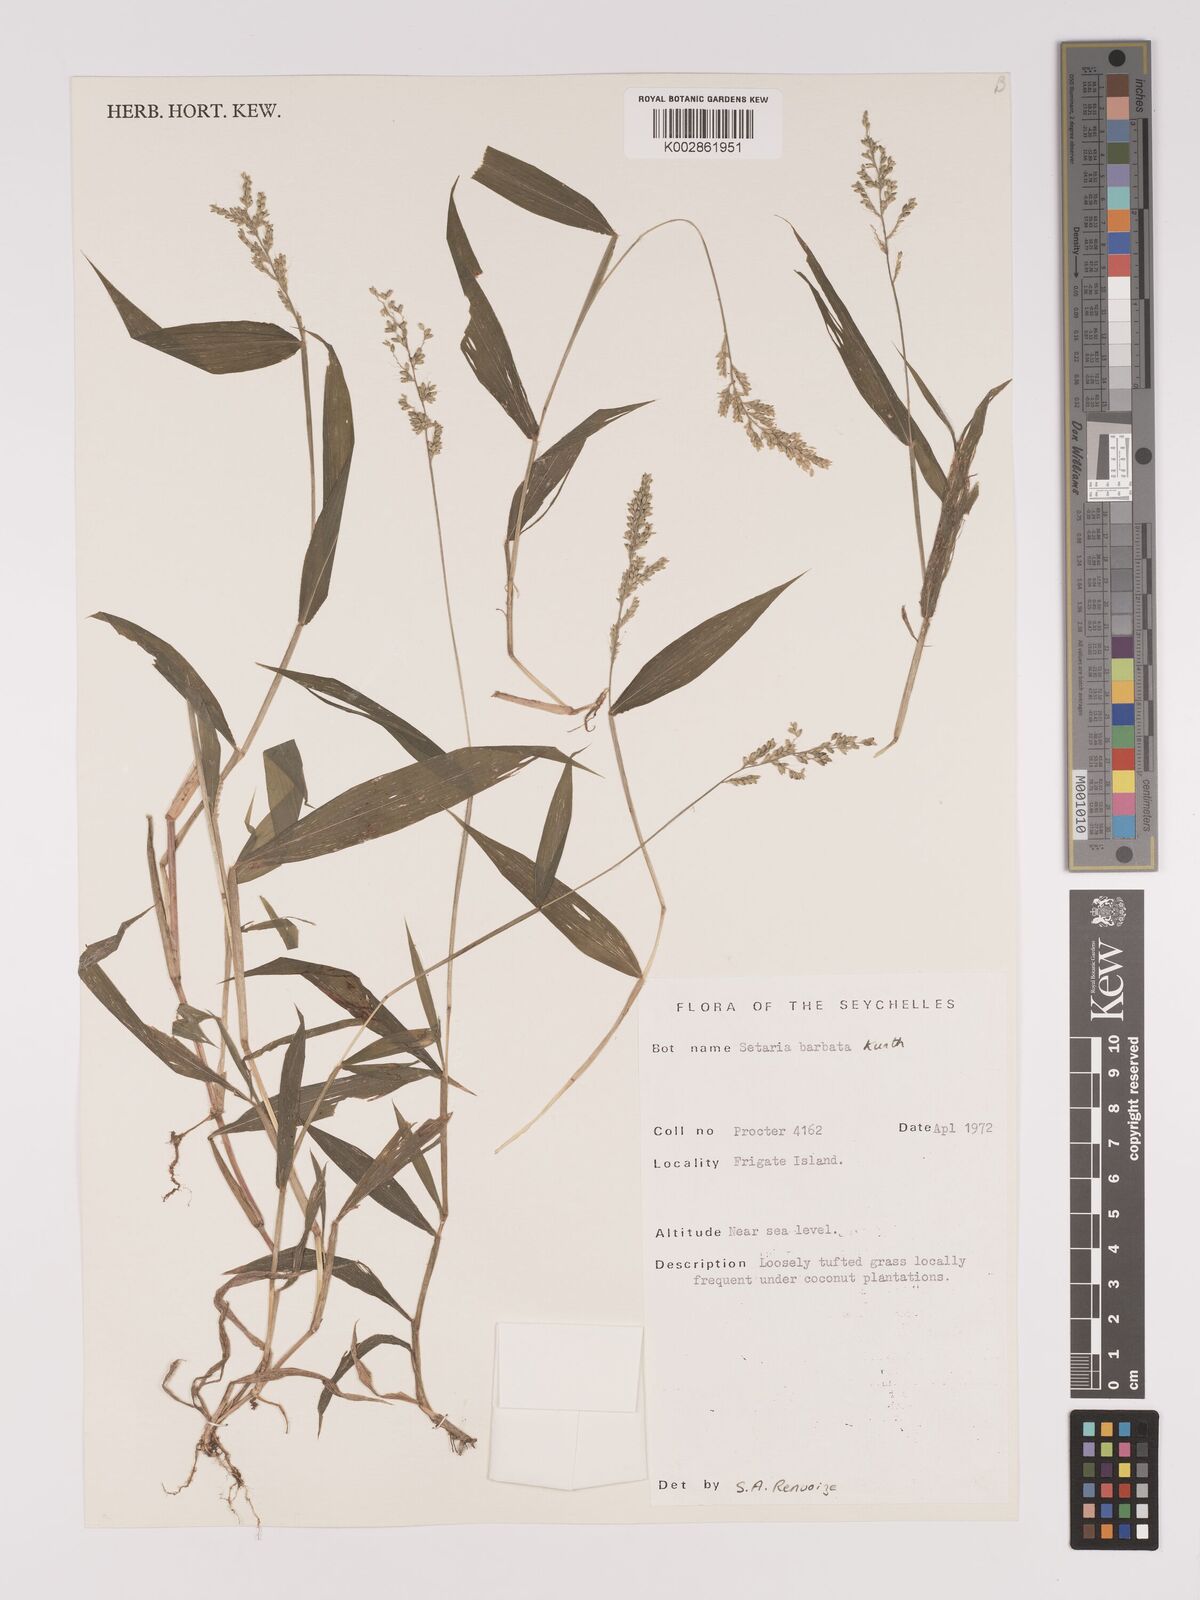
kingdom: Plantae
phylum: Tracheophyta
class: Liliopsida
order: Poales
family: Poaceae
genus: Setaria
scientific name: Setaria barbata
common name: East indian bristlegrass
